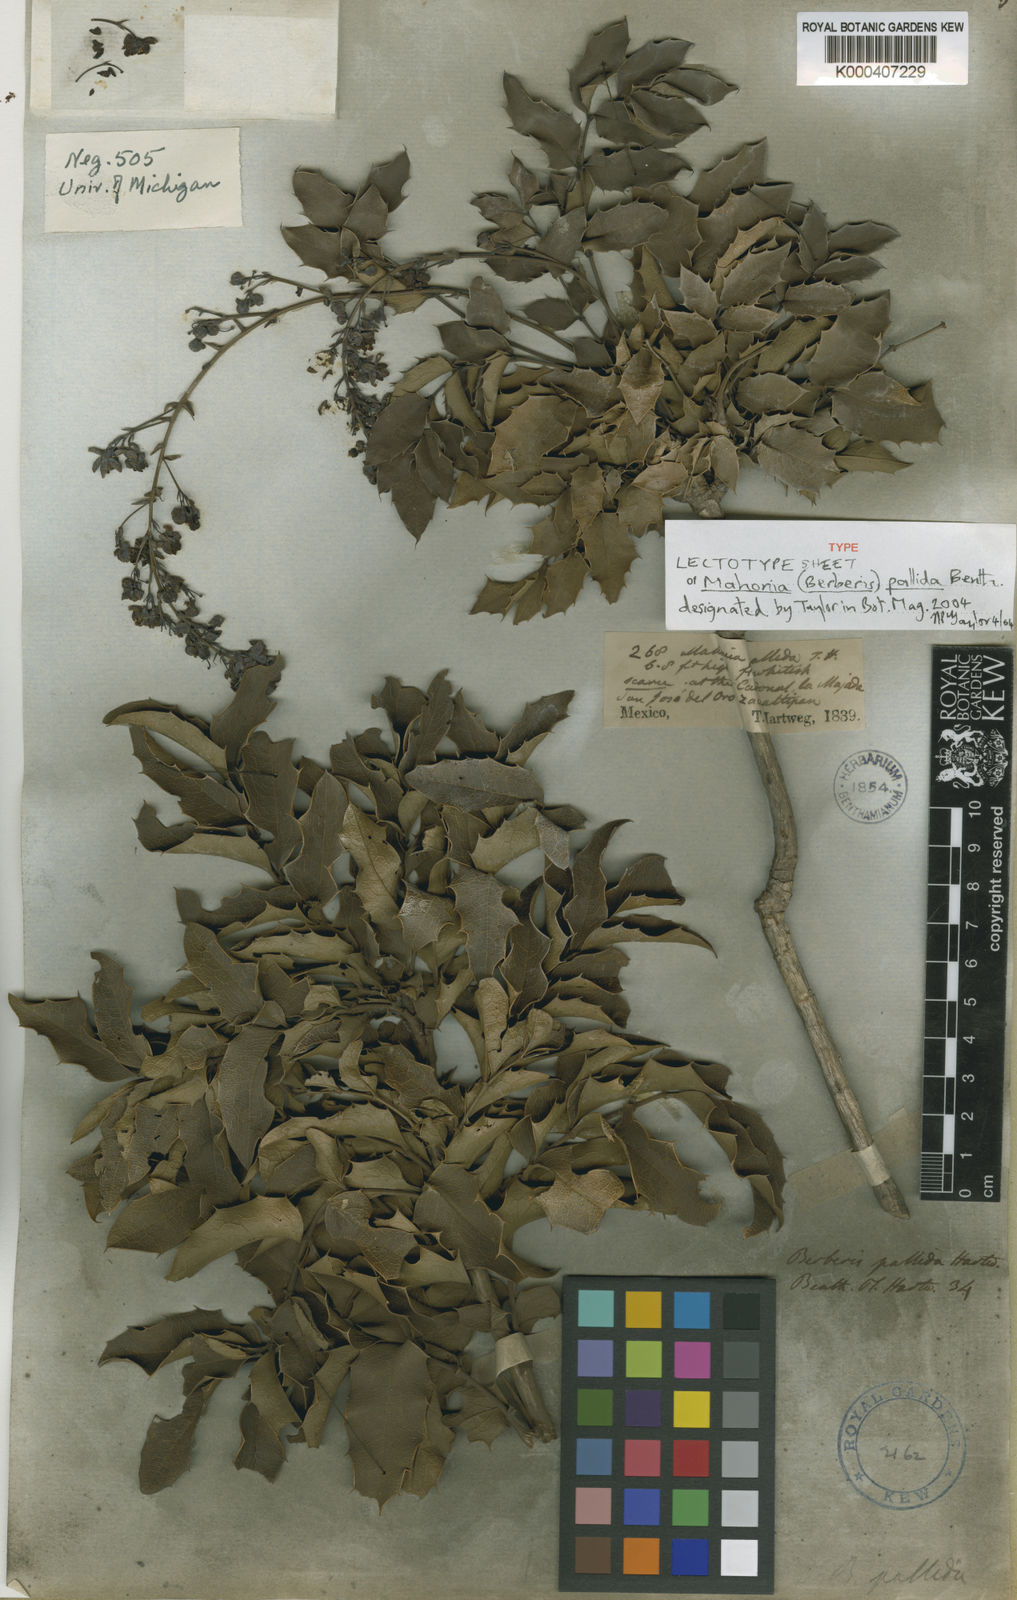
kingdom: Plantae
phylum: Tracheophyta
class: Magnoliopsida
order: Ranunculales
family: Berberidaceae
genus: Mahonia
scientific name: Mahonia pallida
